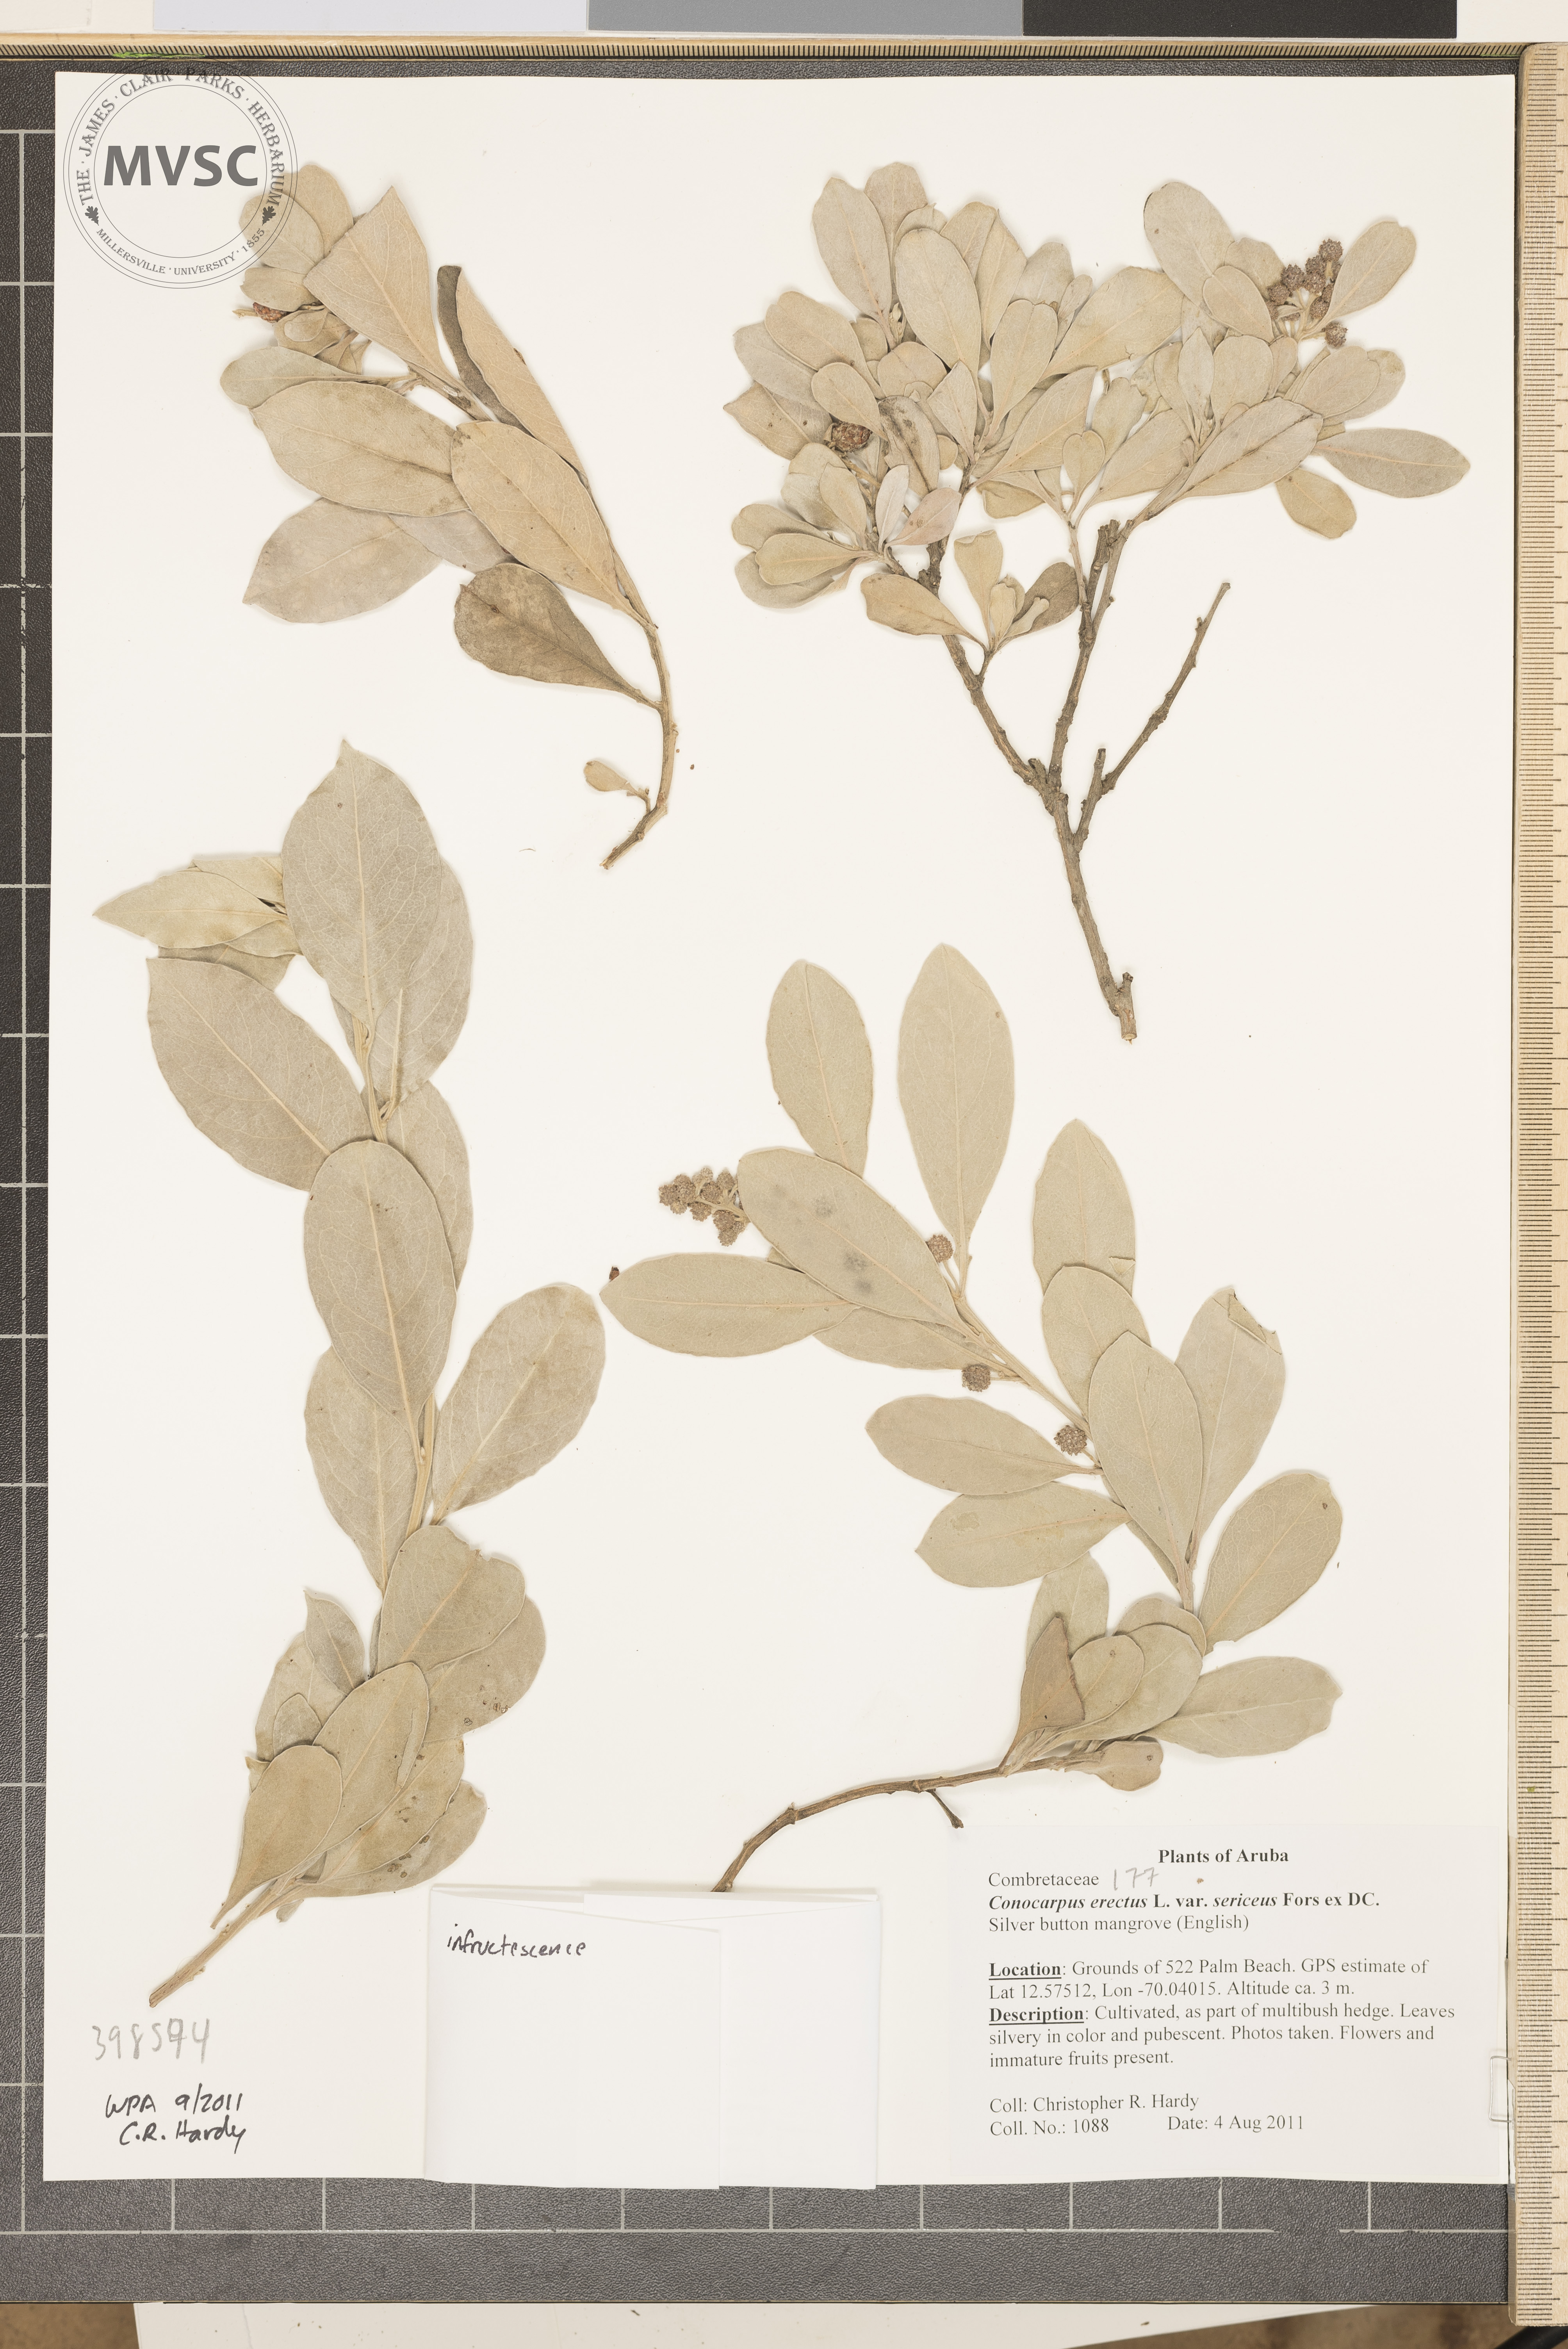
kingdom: Plantae
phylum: Tracheophyta
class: Magnoliopsida
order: Myrtales
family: Combretaceae
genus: Conocarpus
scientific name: Conocarpus erectus
